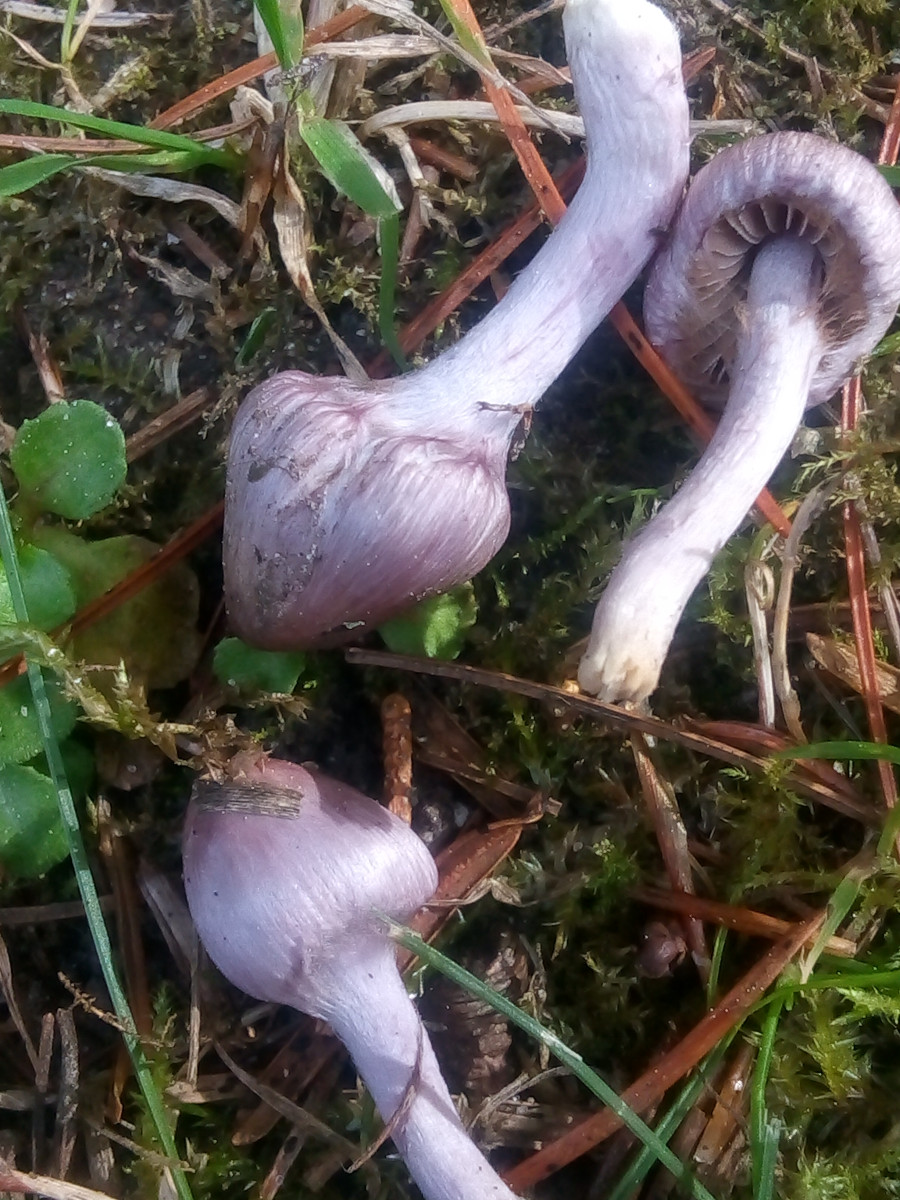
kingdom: Fungi
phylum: Basidiomycota
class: Agaricomycetes
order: Agaricales
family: Inocybaceae
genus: Inocybe
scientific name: Inocybe geophylla
